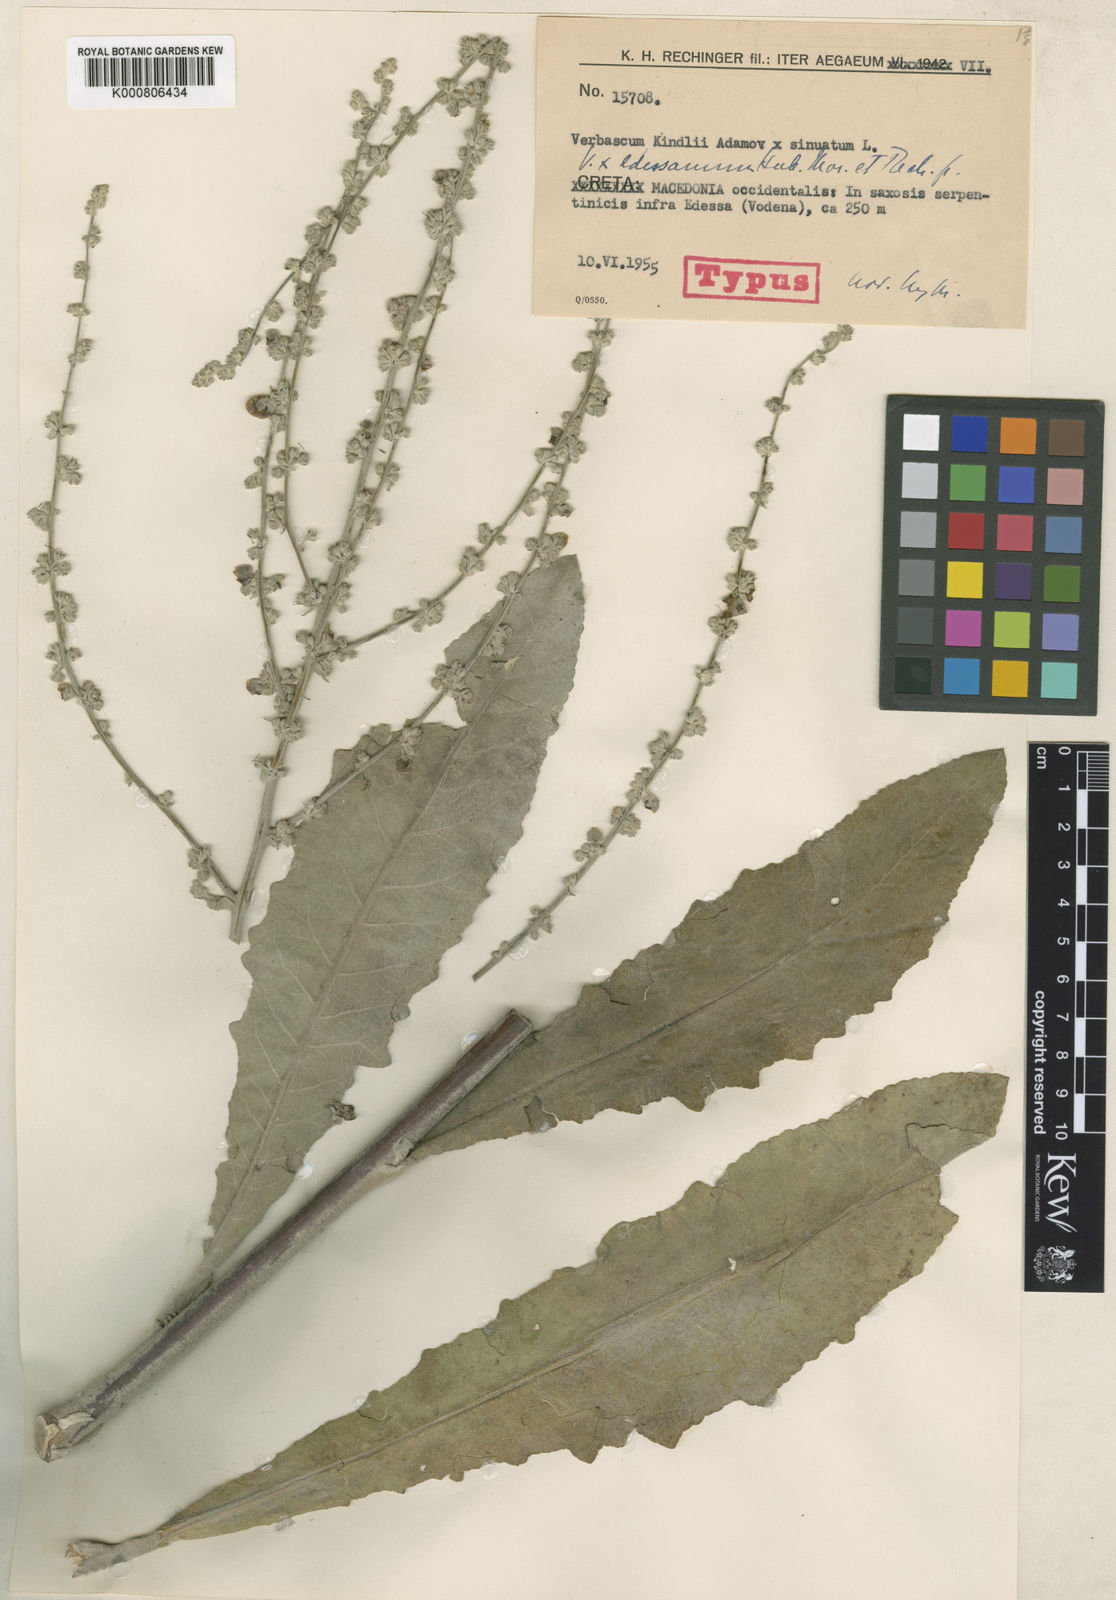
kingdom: Plantae
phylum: Tracheophyta
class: Magnoliopsida
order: Lamiales
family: Scrophulariaceae
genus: Verbascum
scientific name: Verbascum edessanum
